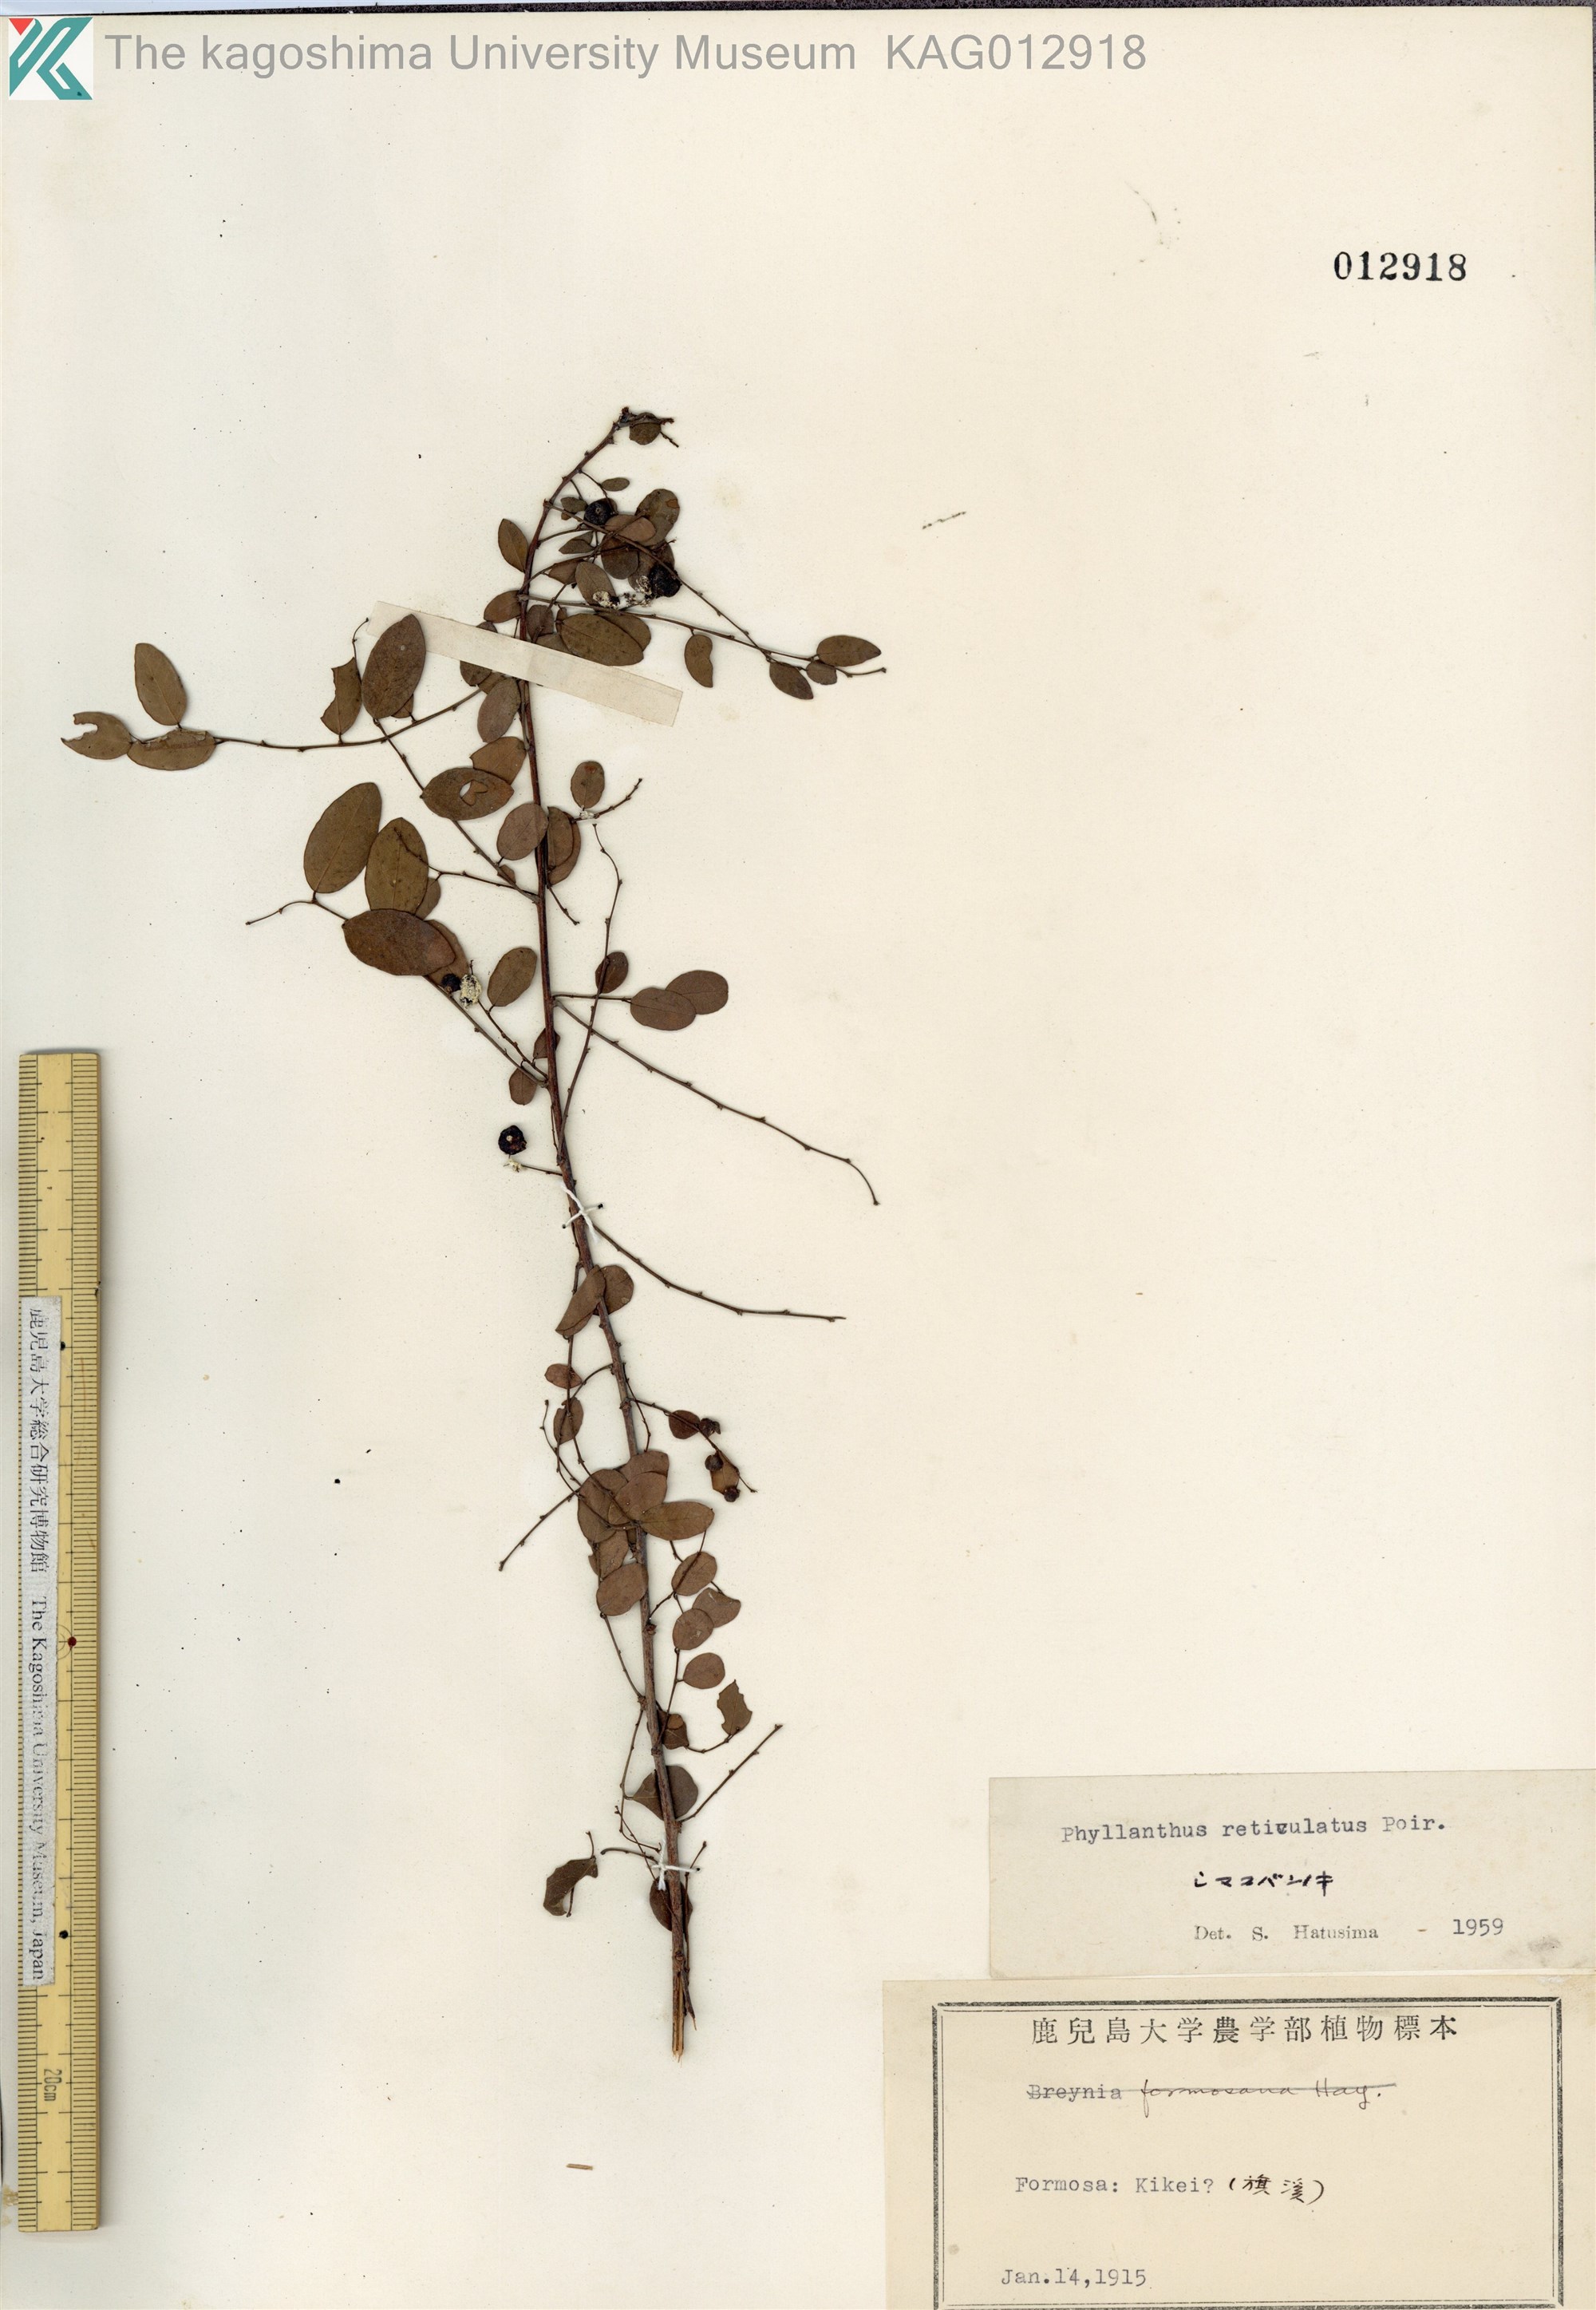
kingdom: Plantae
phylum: Tracheophyta
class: Magnoliopsida
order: Malpighiales
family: Phyllanthaceae
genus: Phyllanthus
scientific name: Phyllanthus reticulatus
